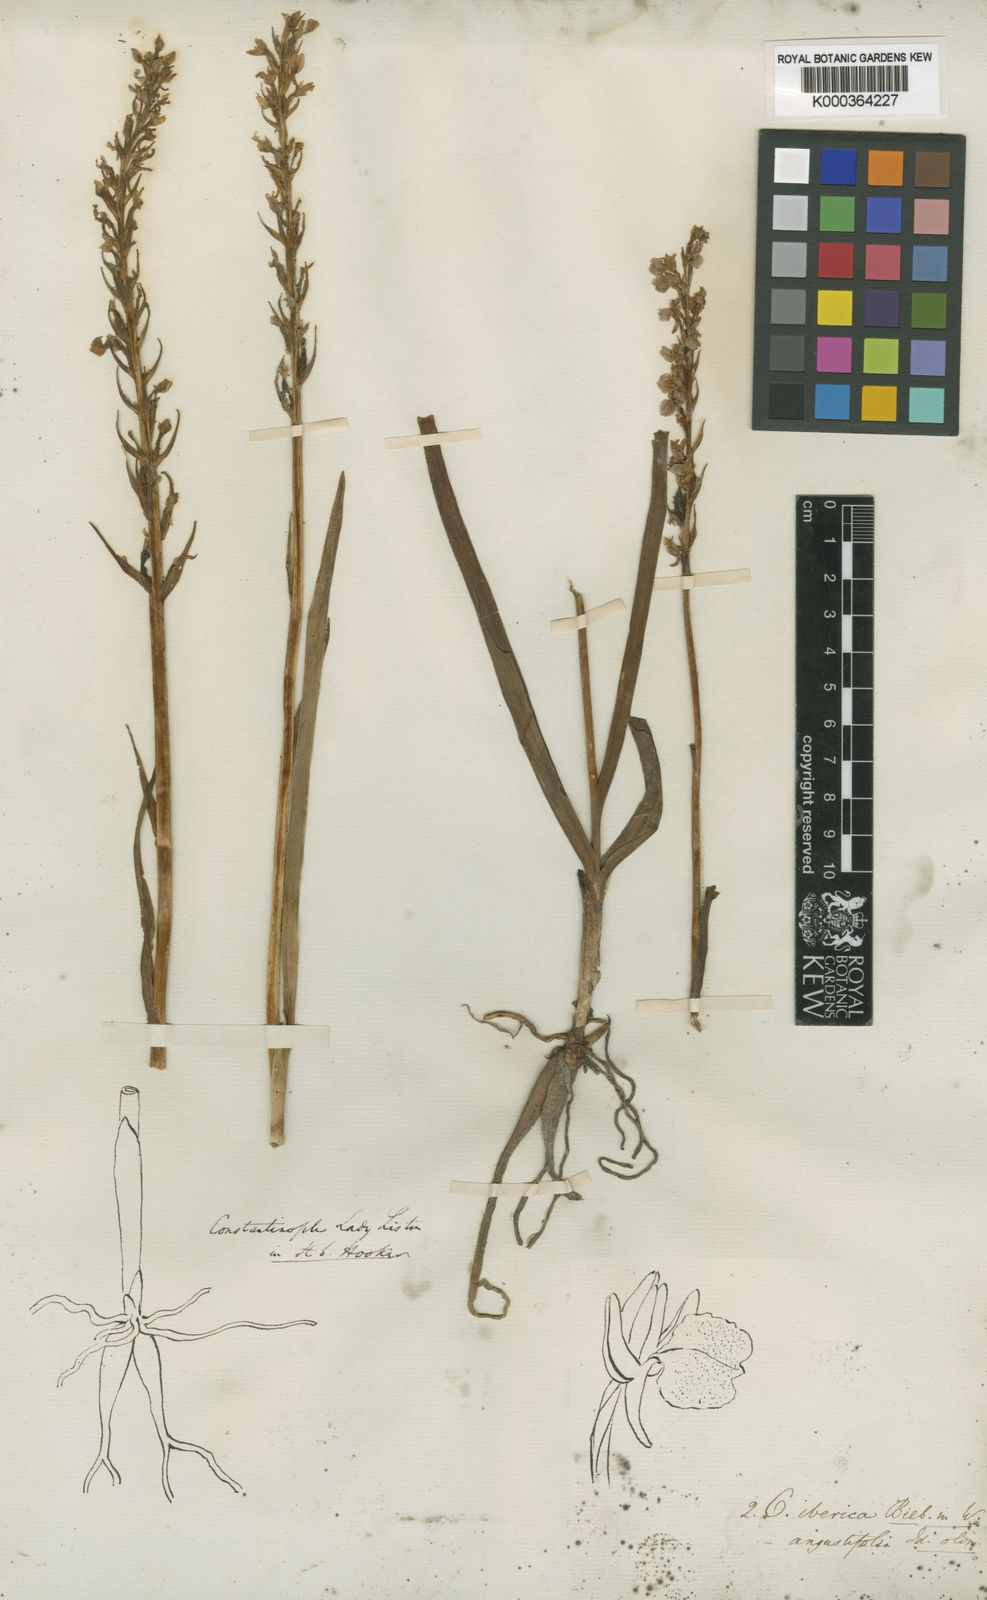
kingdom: Plantae
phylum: Tracheophyta
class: Liliopsida
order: Asparagales
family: Orchidaceae
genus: Dactylorhiza
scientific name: Dactylorhiza
